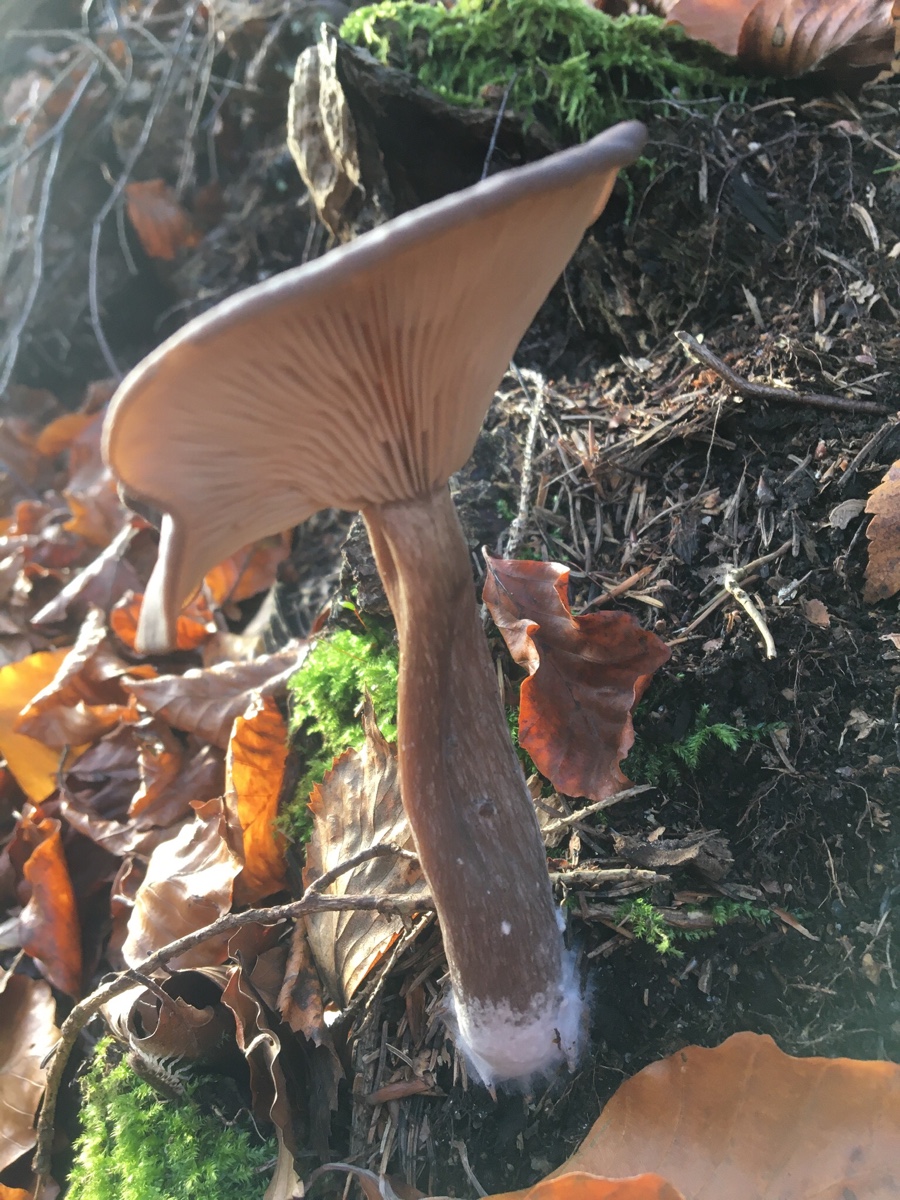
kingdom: Fungi
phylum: Basidiomycota
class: Agaricomycetes
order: Agaricales
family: Pseudoclitocybaceae
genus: Pseudoclitocybe
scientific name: Pseudoclitocybe cyathiformis
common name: almindelig bægertragthat
